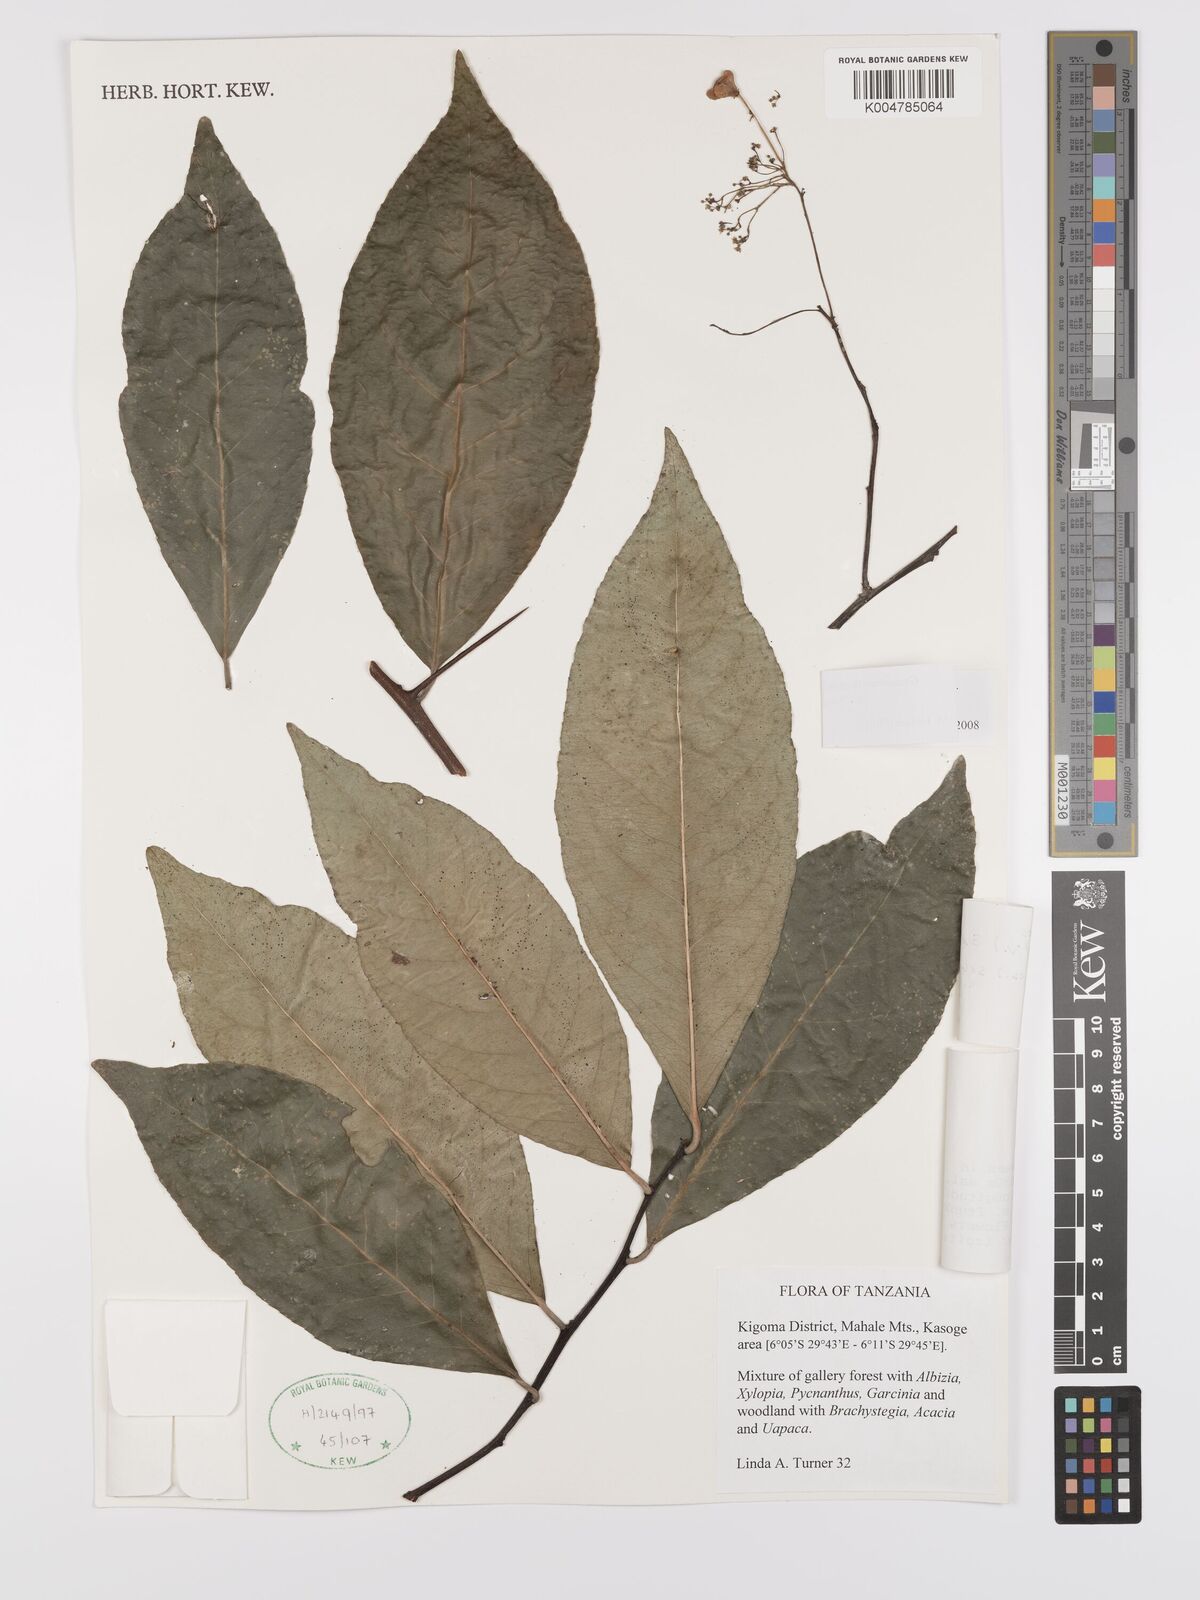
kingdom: Plantae
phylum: Tracheophyta
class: Magnoliopsida
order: Celastrales
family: Celastraceae
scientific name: Celastraceae
